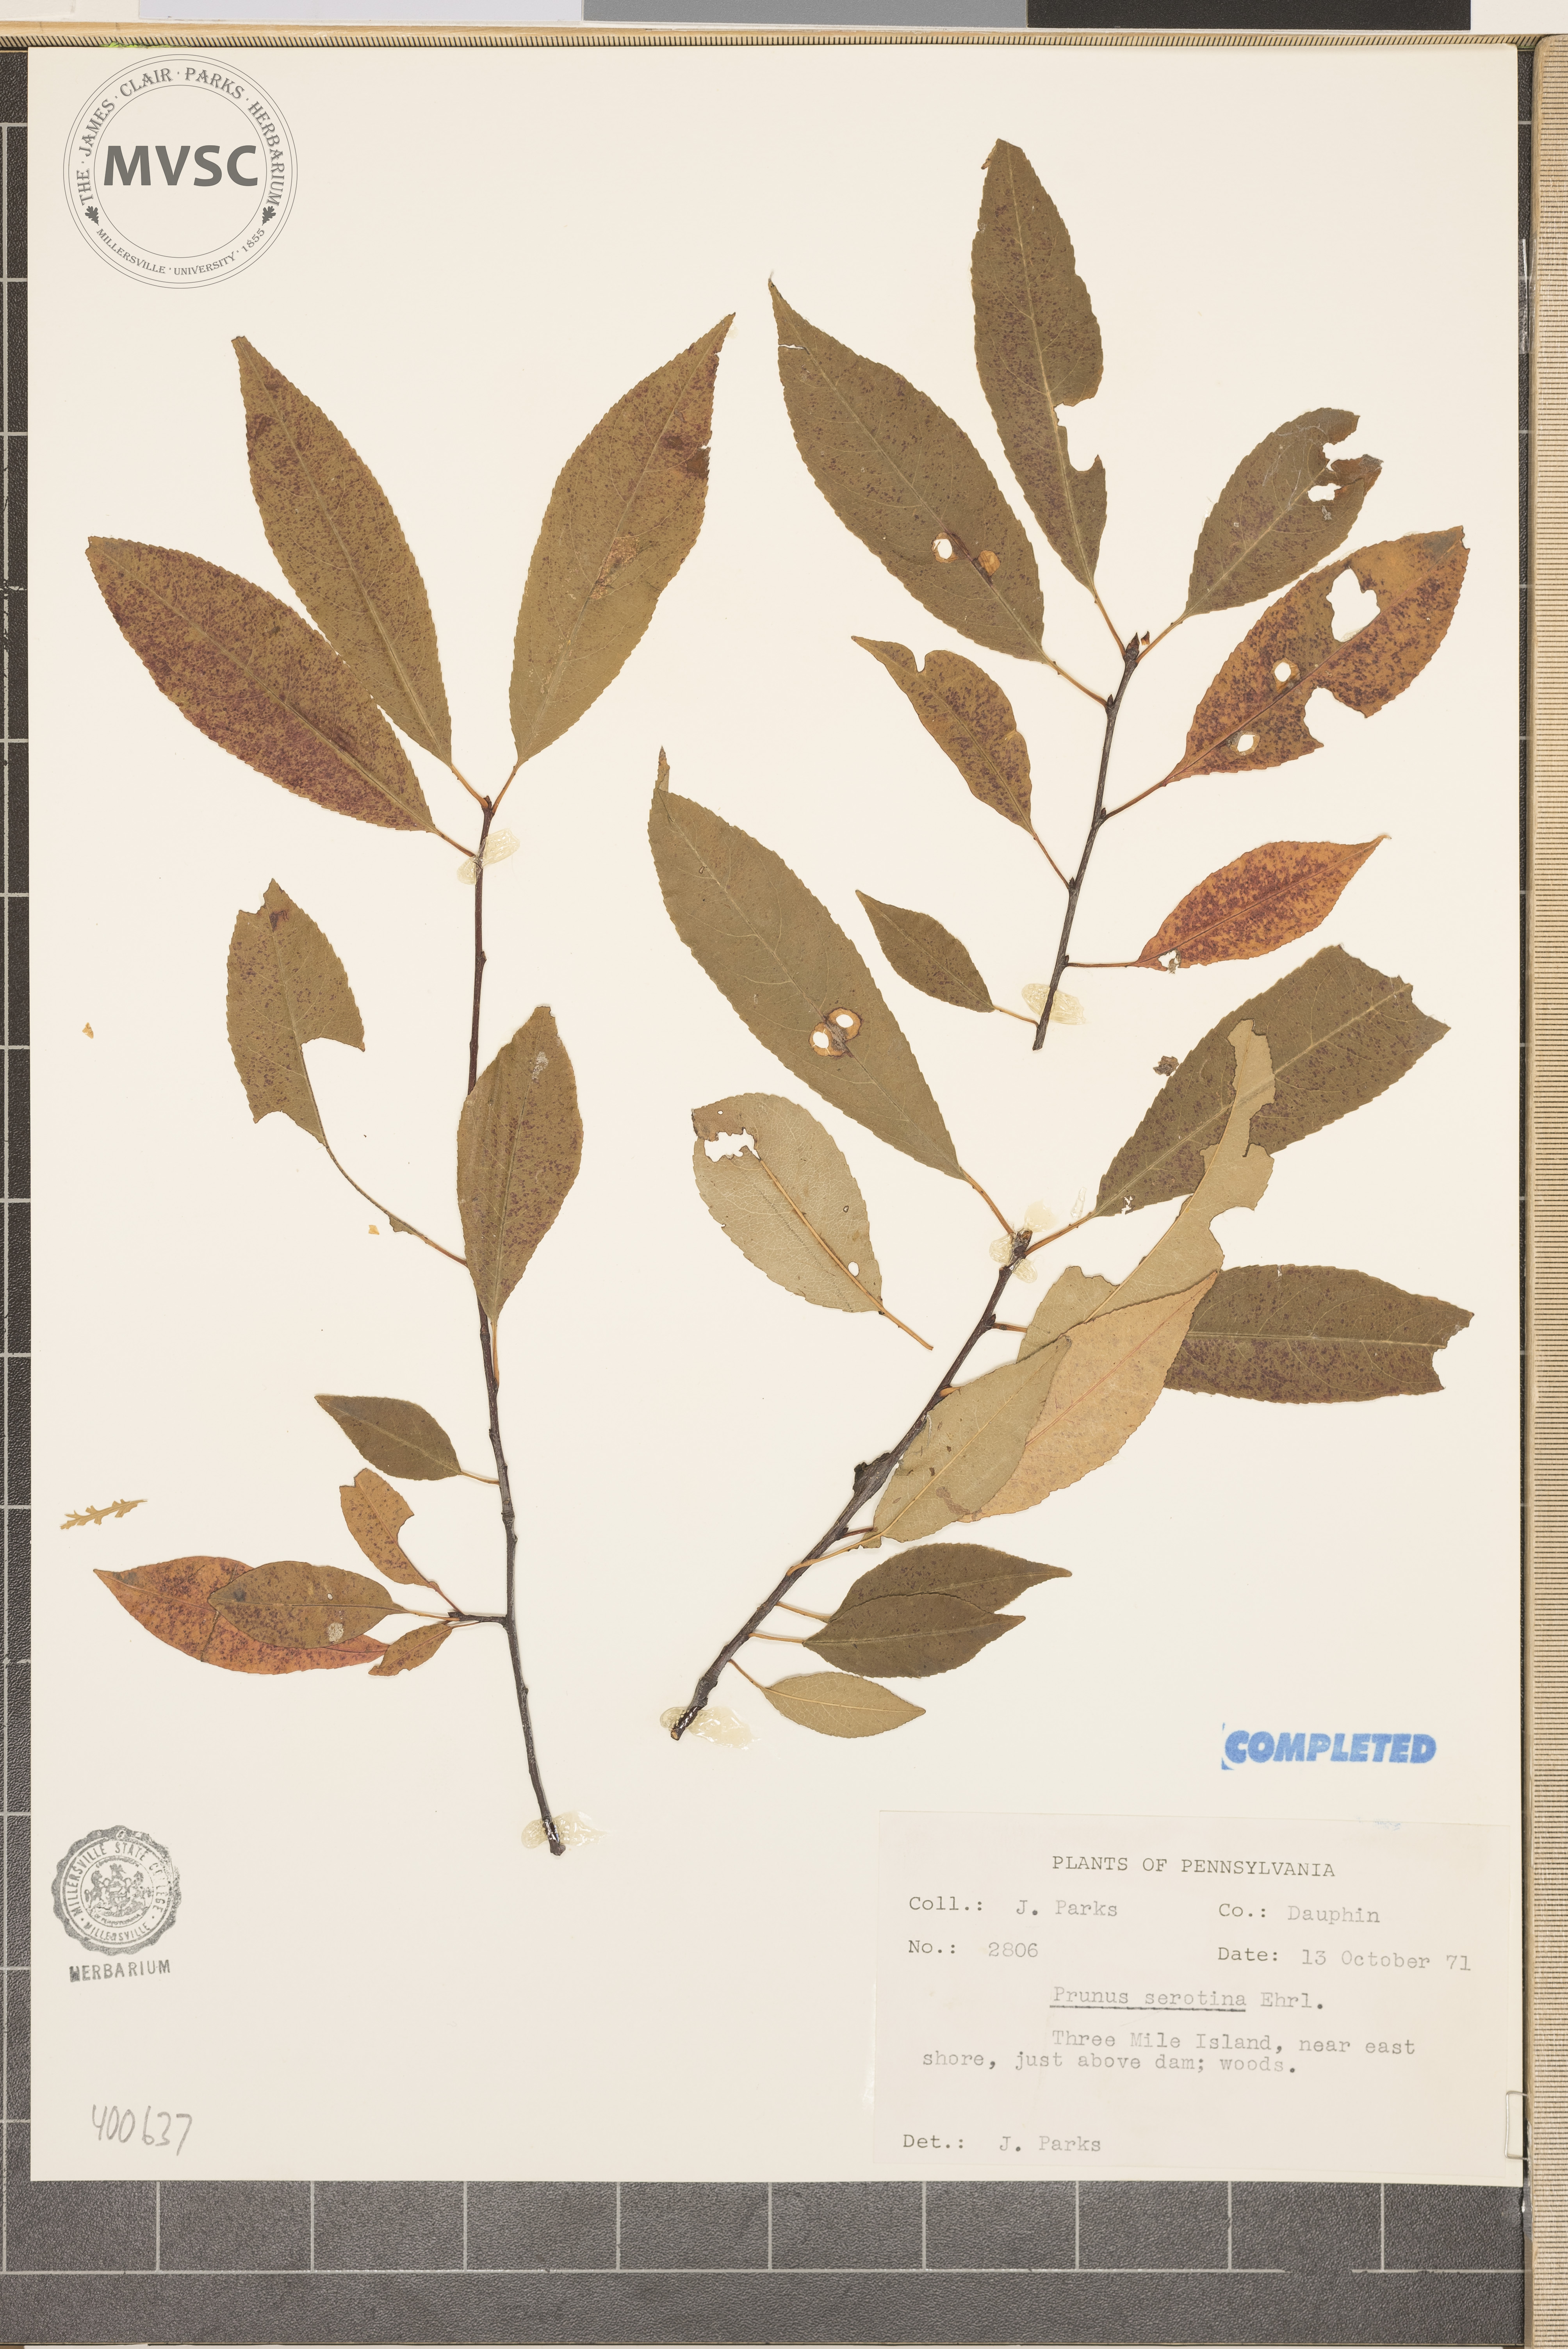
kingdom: Plantae
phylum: Tracheophyta
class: Magnoliopsida
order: Rosales
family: Rosaceae
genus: Prunus
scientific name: Prunus serotina
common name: wild black cherry
